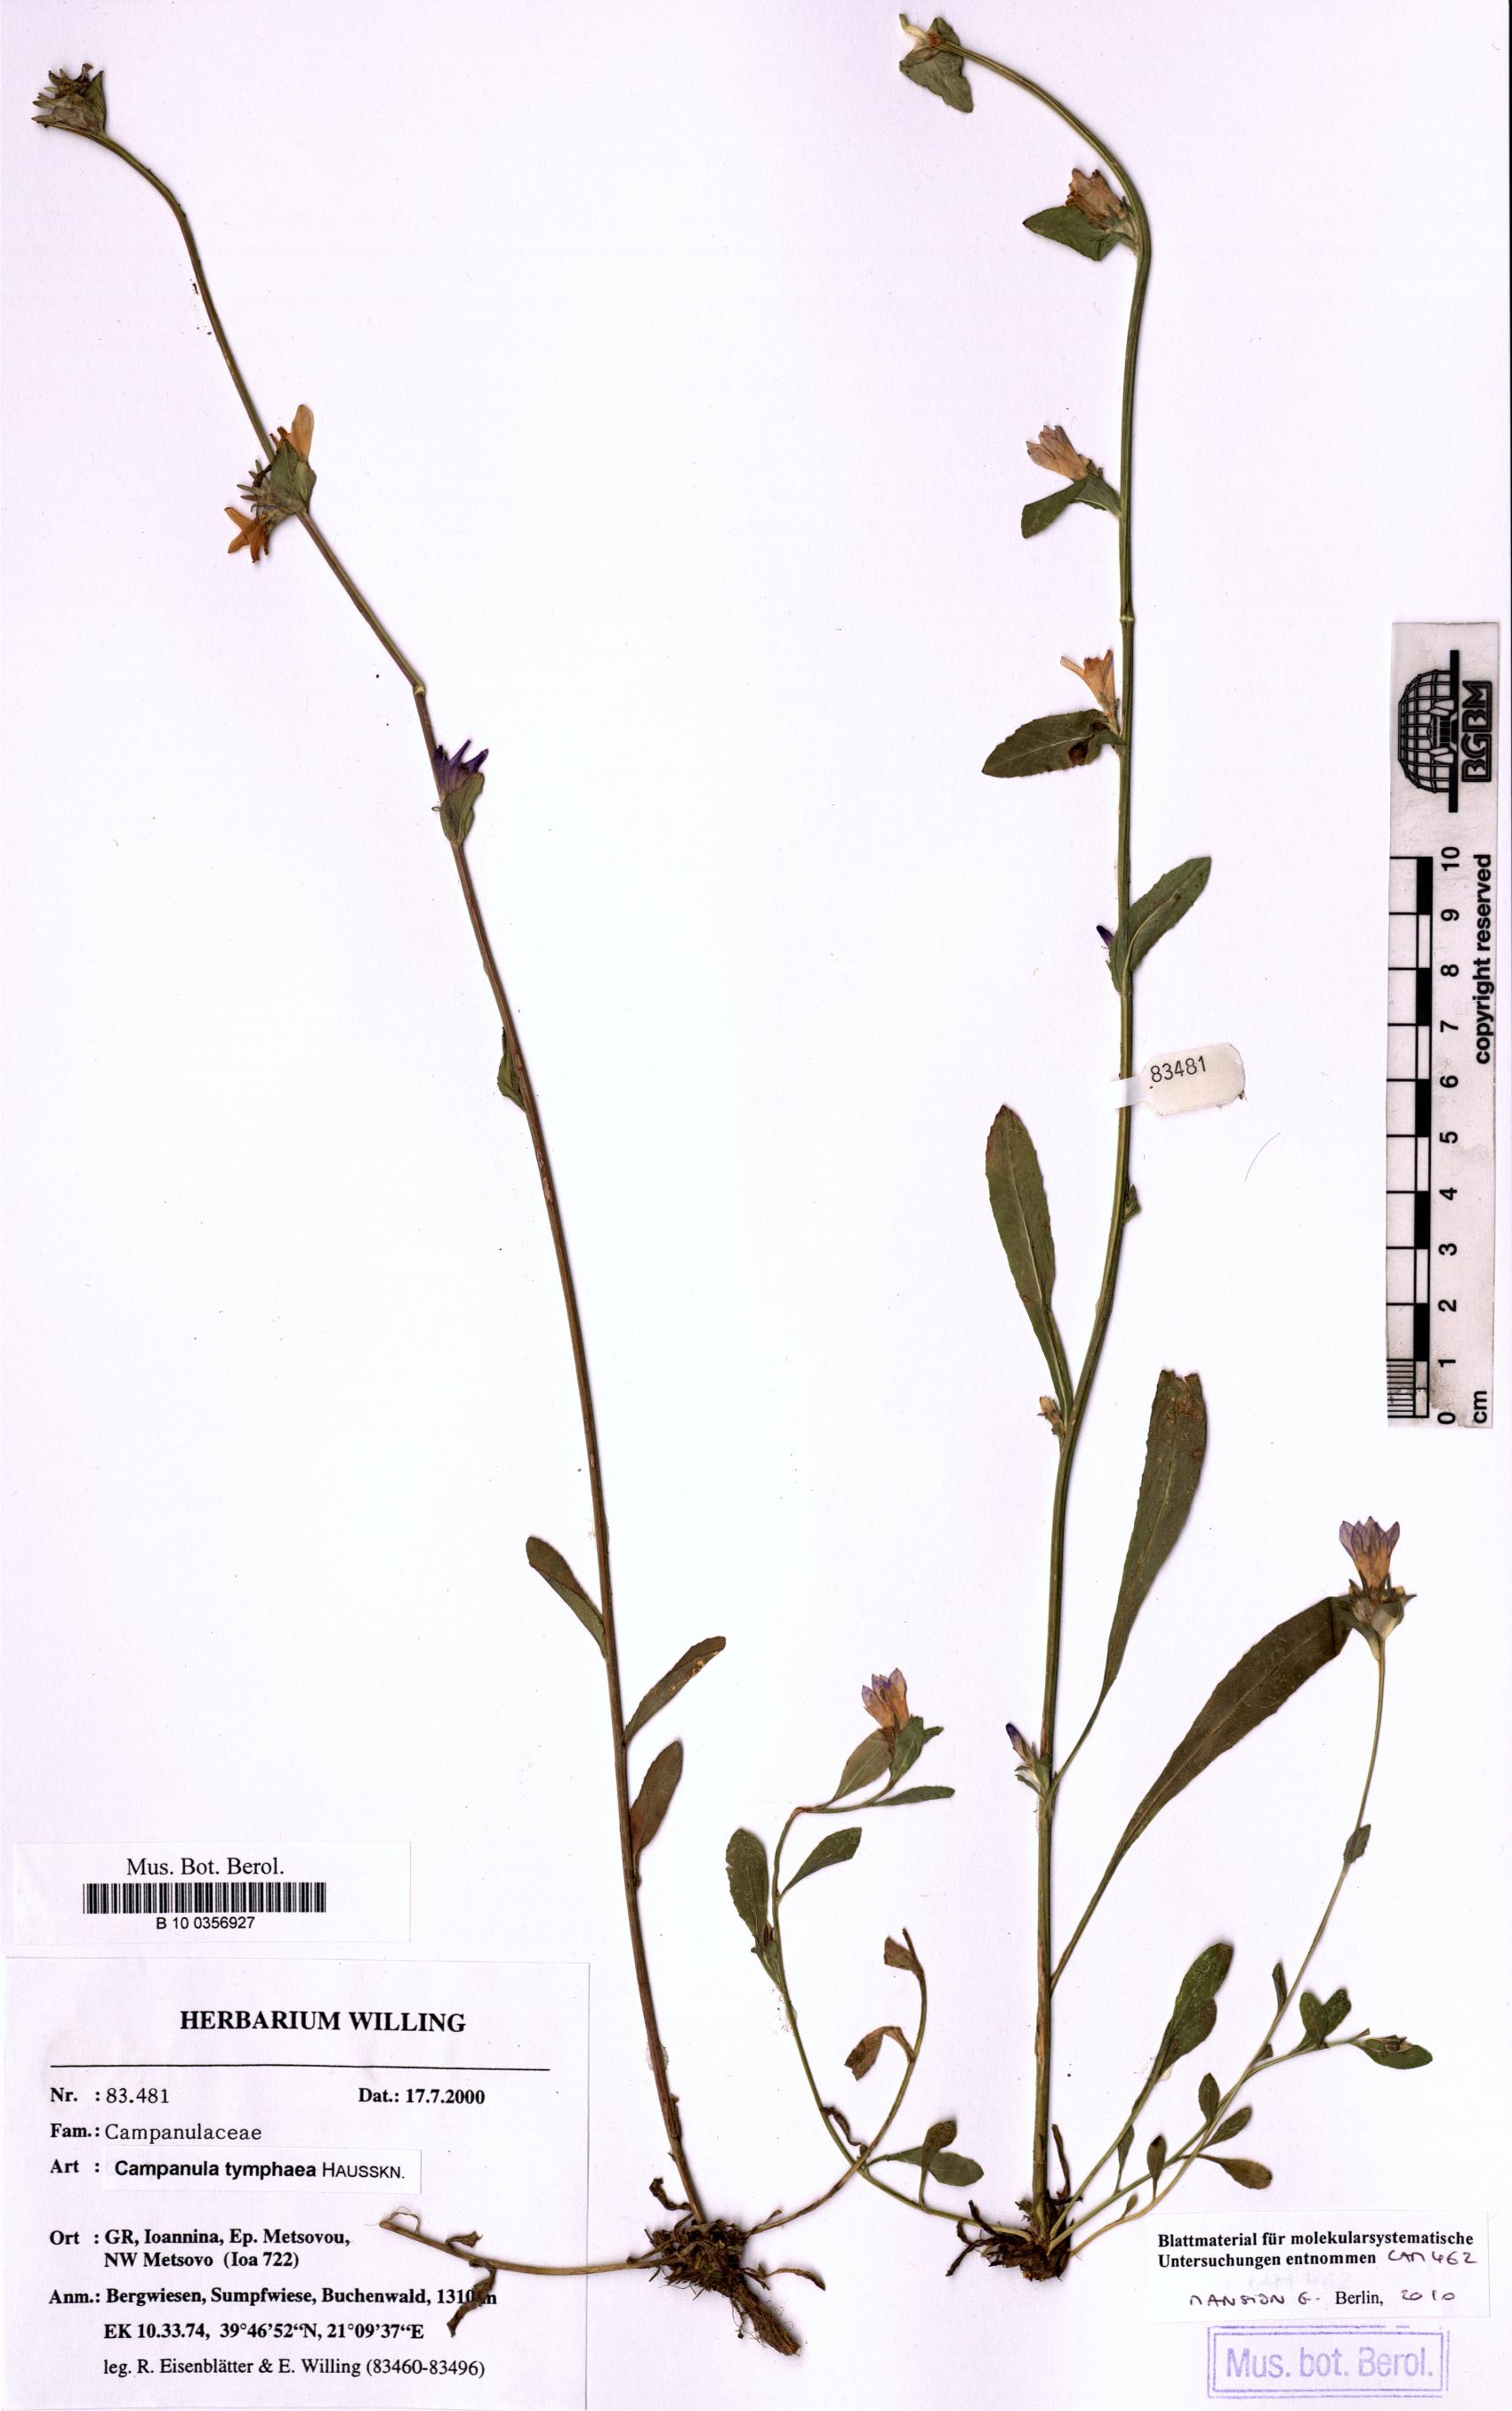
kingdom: Plantae
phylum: Tracheophyta
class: Magnoliopsida
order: Asterales
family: Campanulaceae
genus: Campanula
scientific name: Campanula tymphaea
